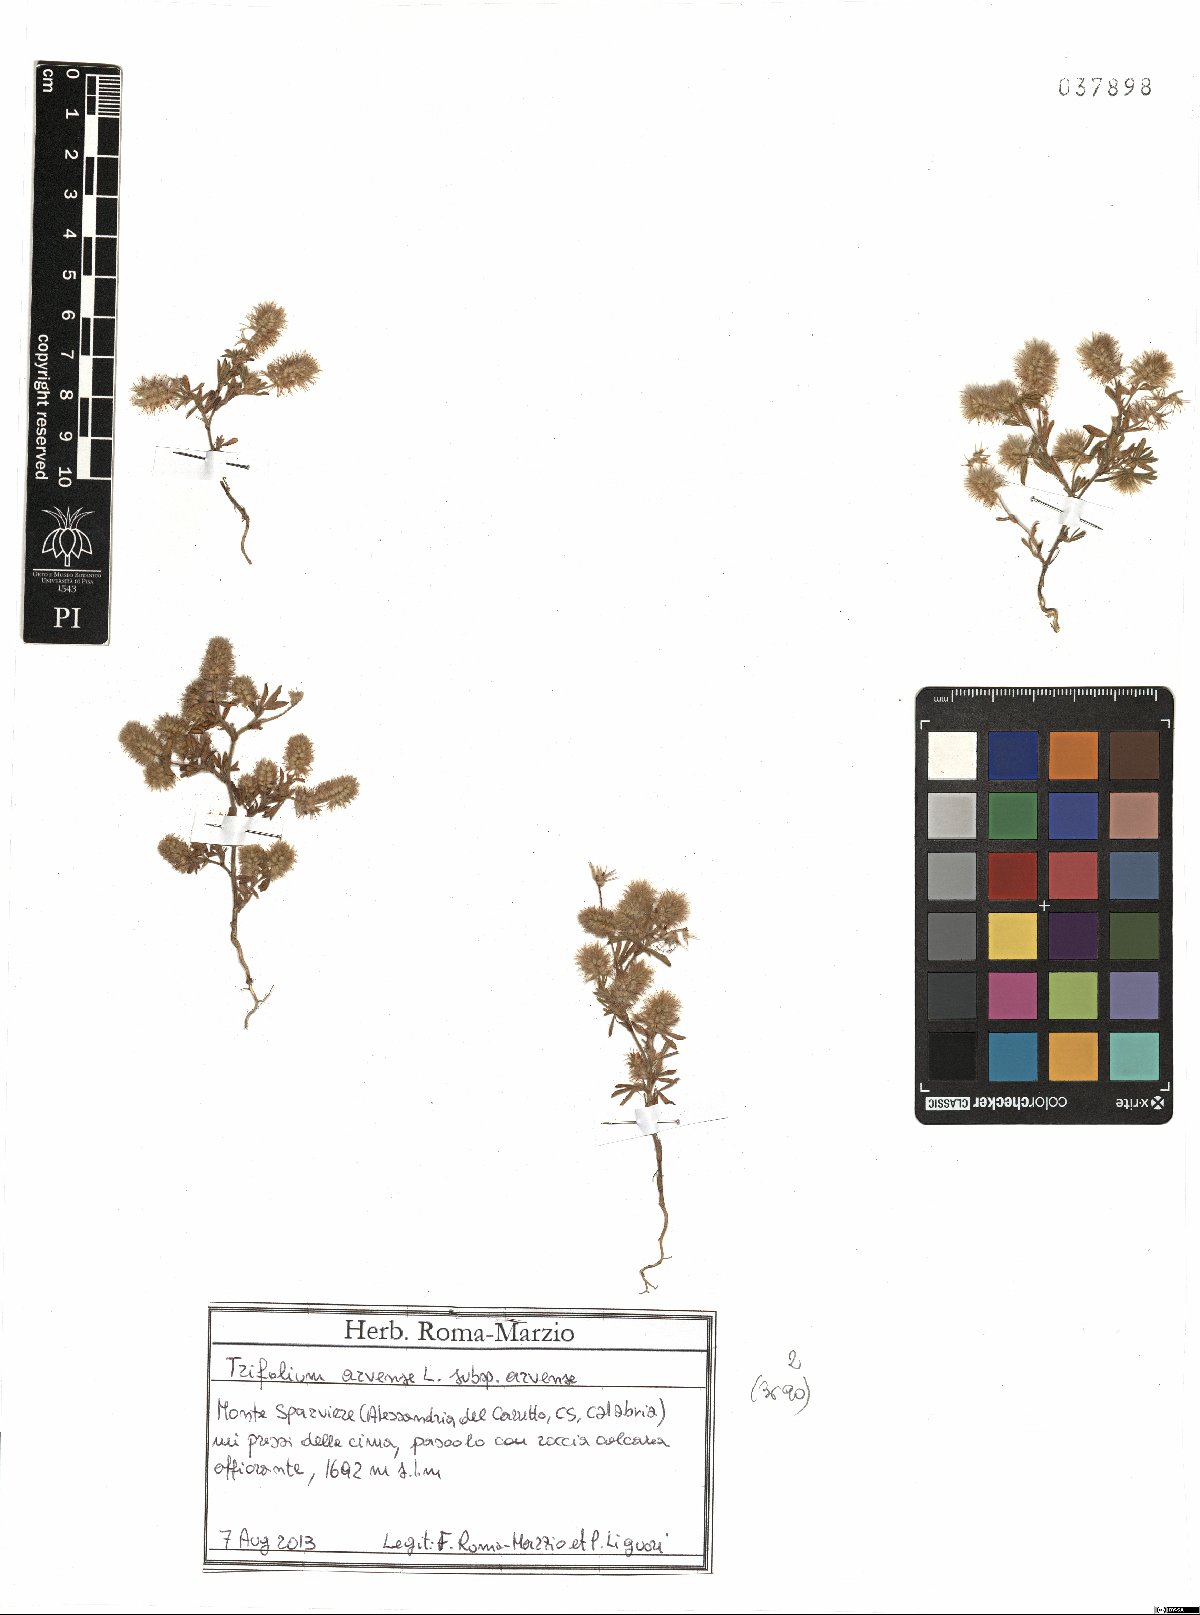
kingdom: Plantae
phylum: Tracheophyta
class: Magnoliopsida
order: Fabales
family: Fabaceae
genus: Trifolium
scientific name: Trifolium arvense
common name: Hare's-foot clover
